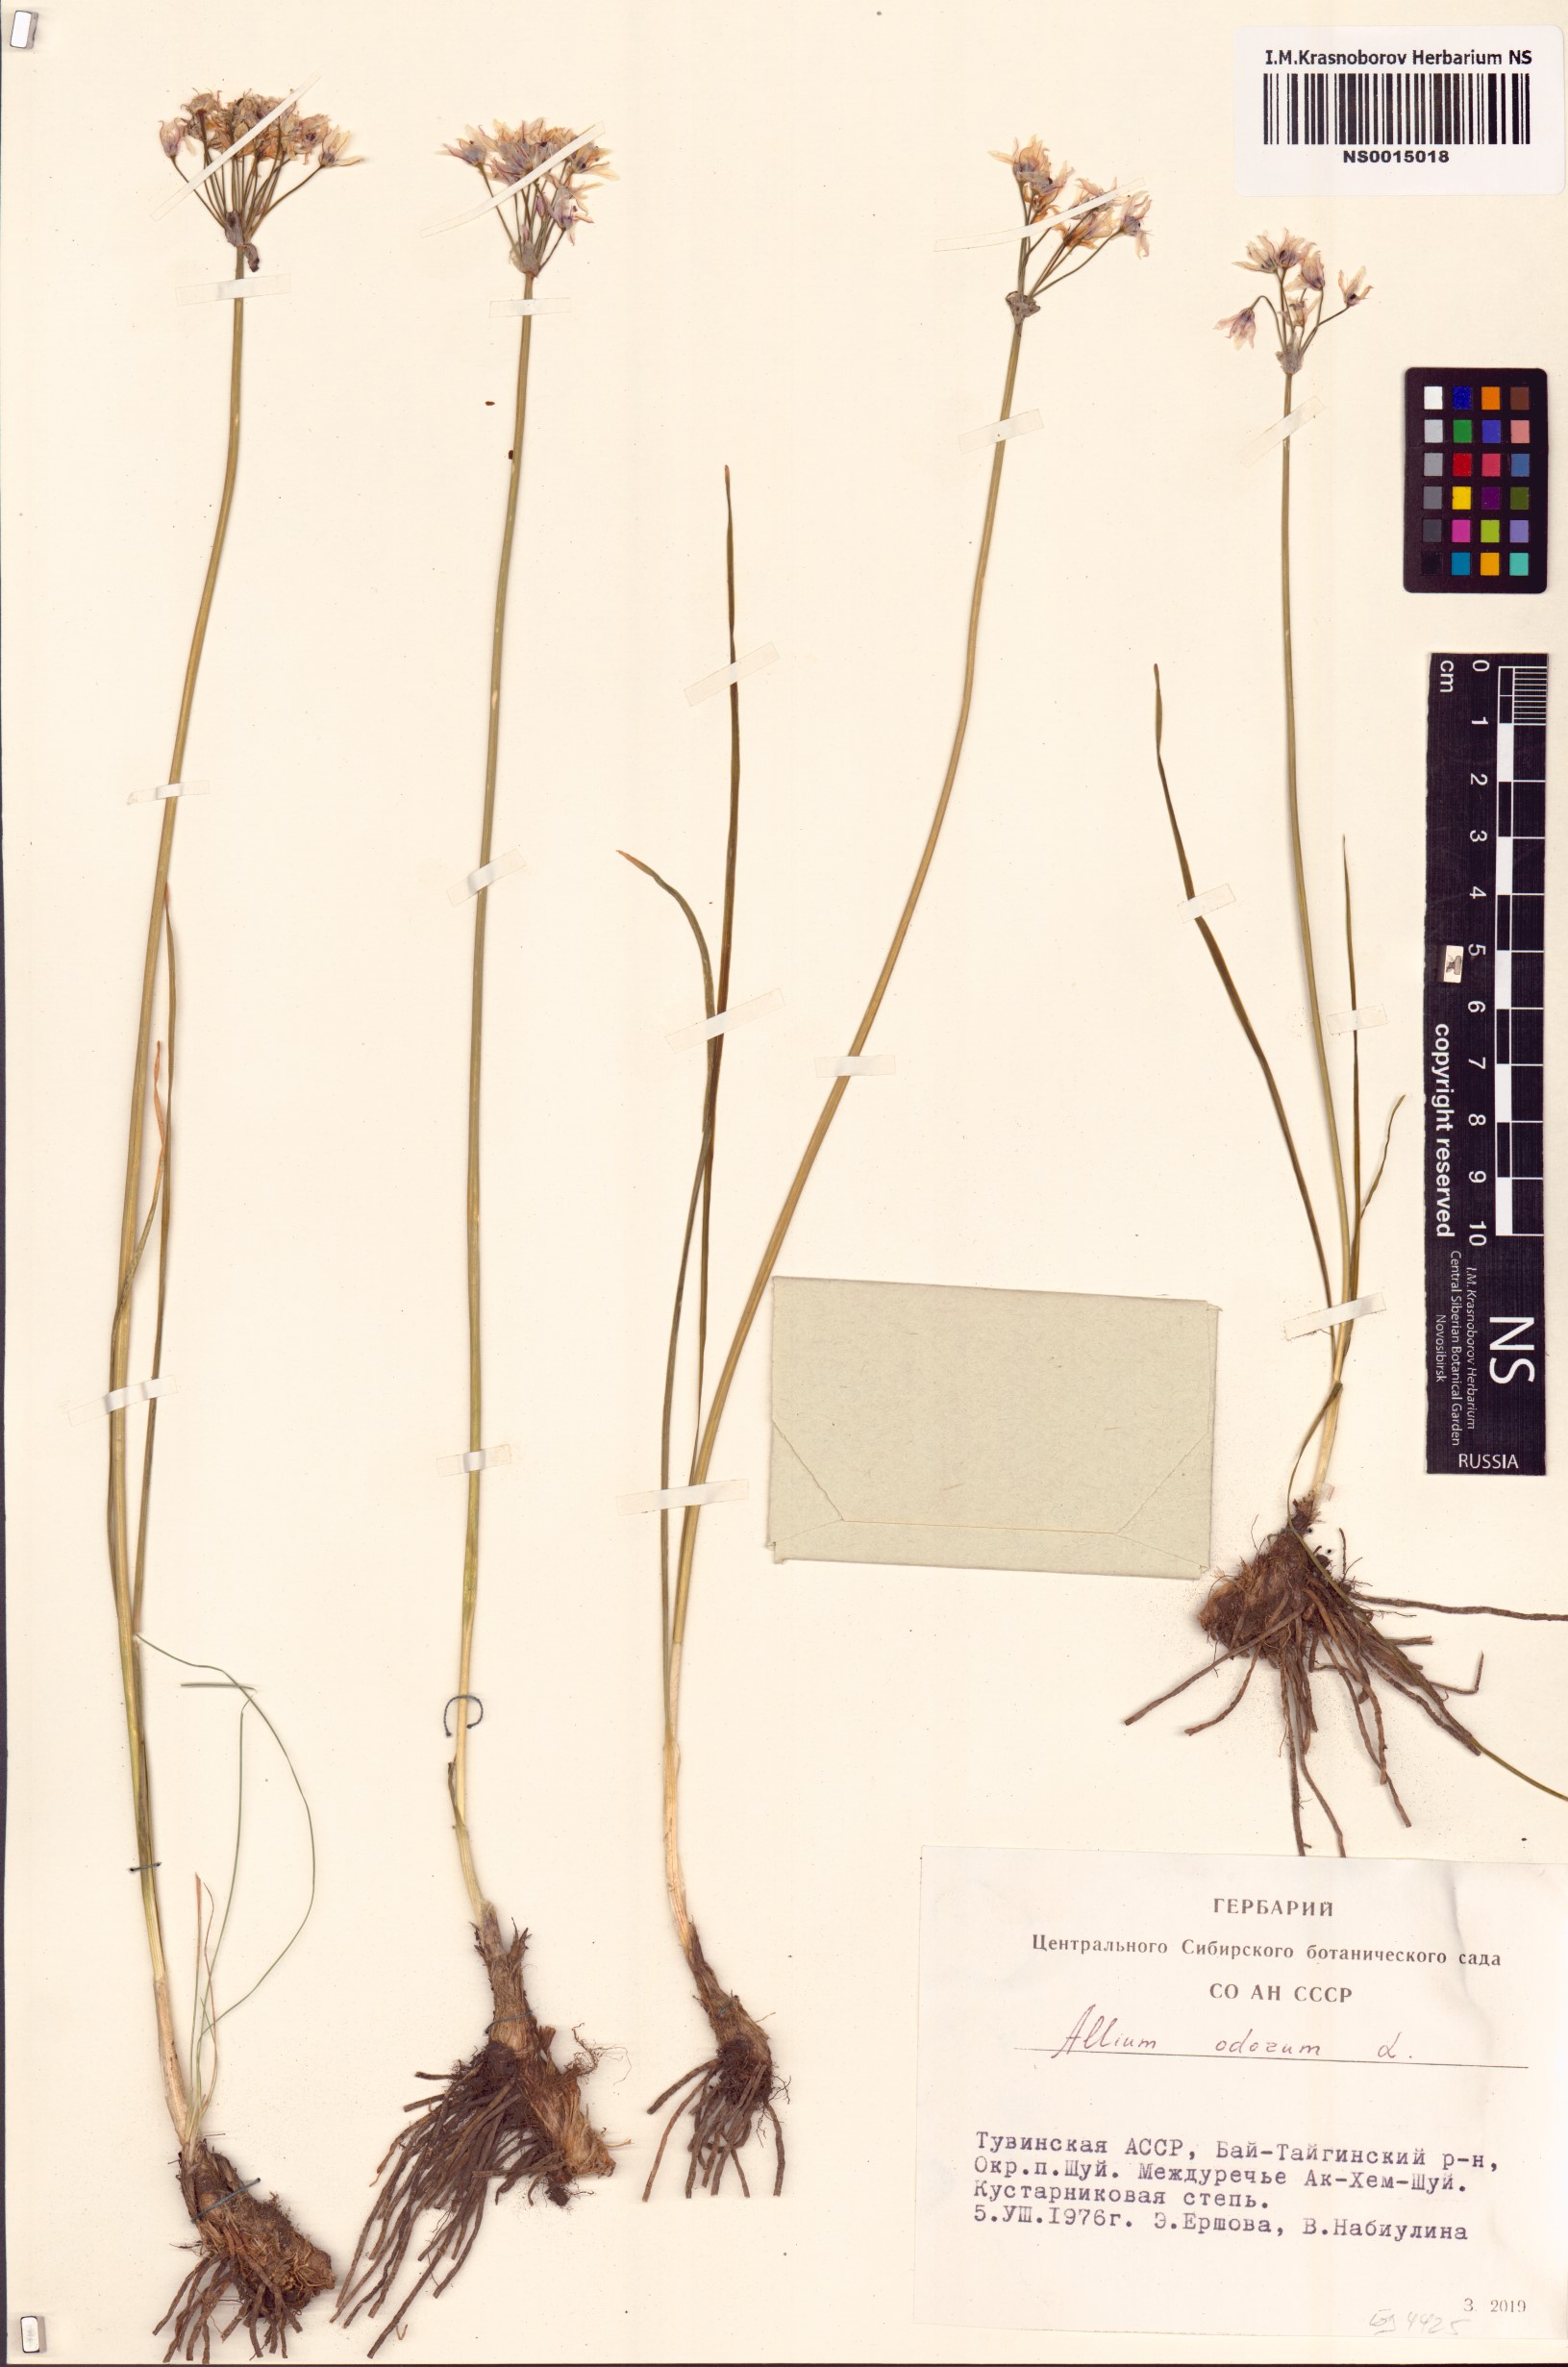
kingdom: Plantae
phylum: Tracheophyta
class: Liliopsida
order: Asparagales
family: Amaryllidaceae
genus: Allium
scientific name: Allium ramosum
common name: Fragrant garlic
